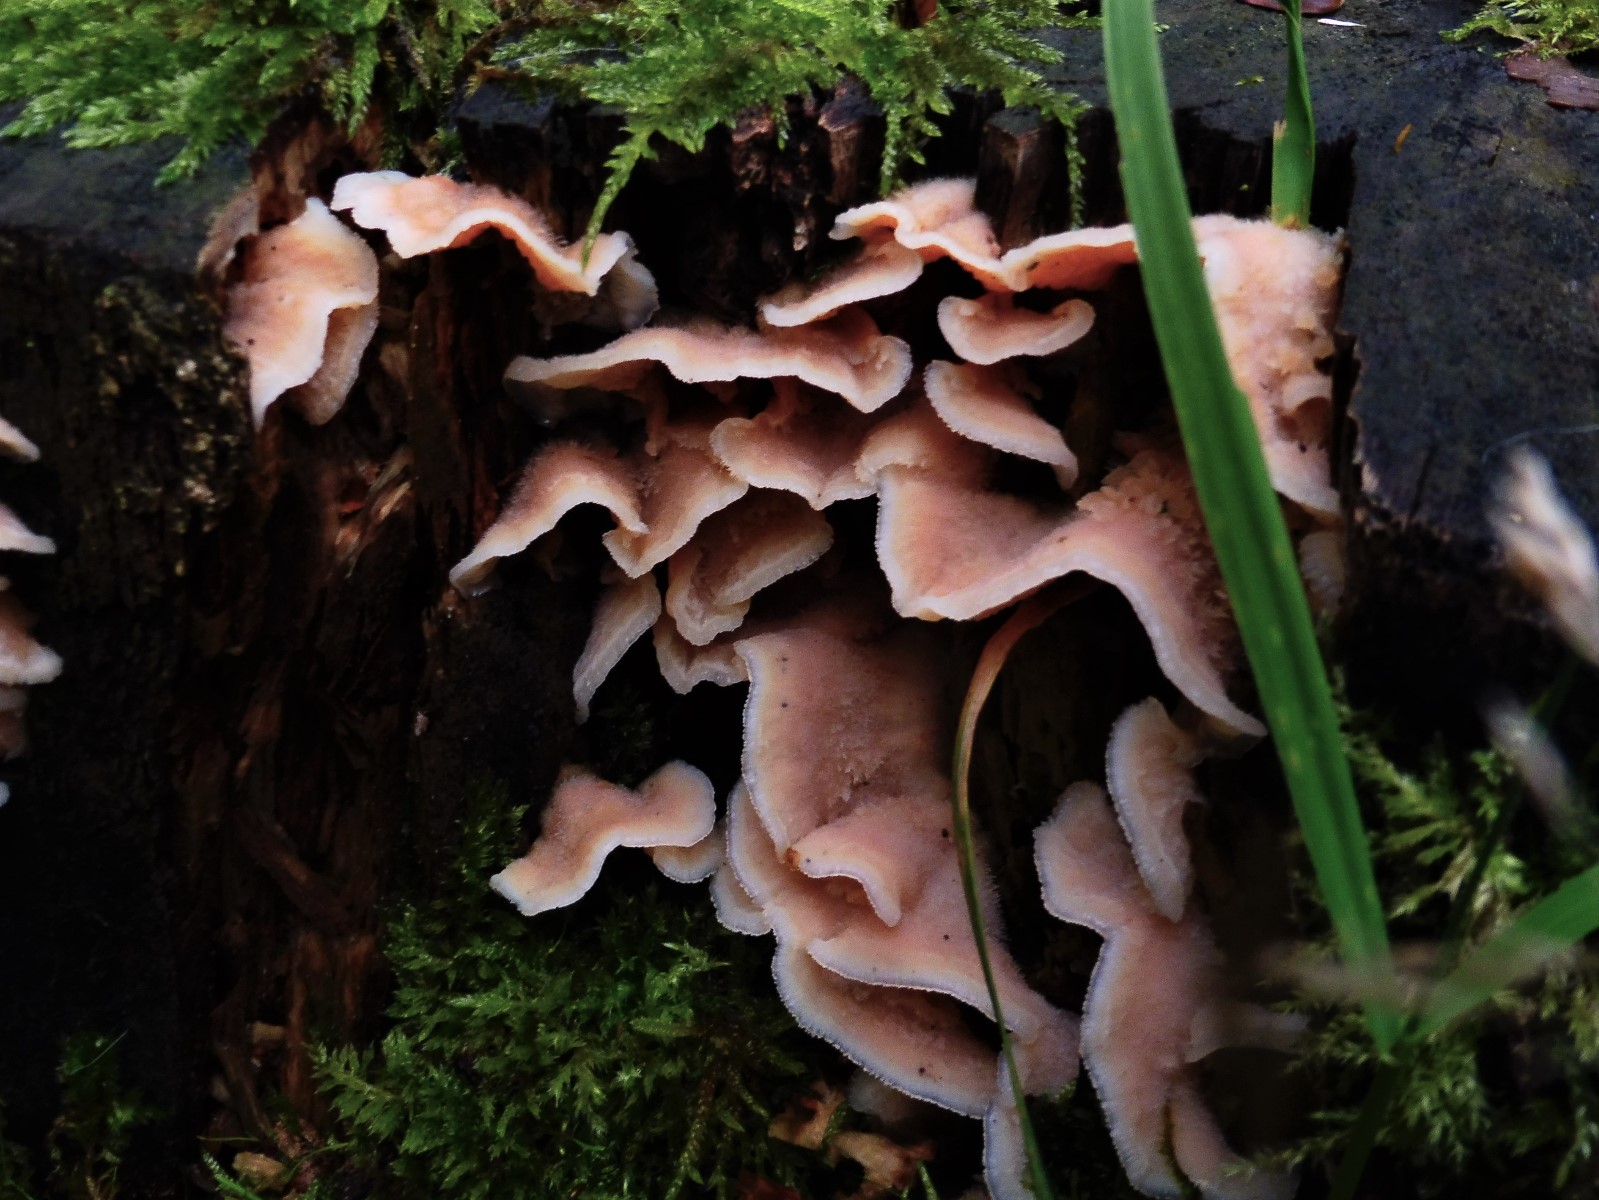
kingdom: Fungi
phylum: Basidiomycota
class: Agaricomycetes
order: Polyporales
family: Meruliaceae
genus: Phlebia
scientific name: Phlebia tremellosa
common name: bævrende åresvamp
